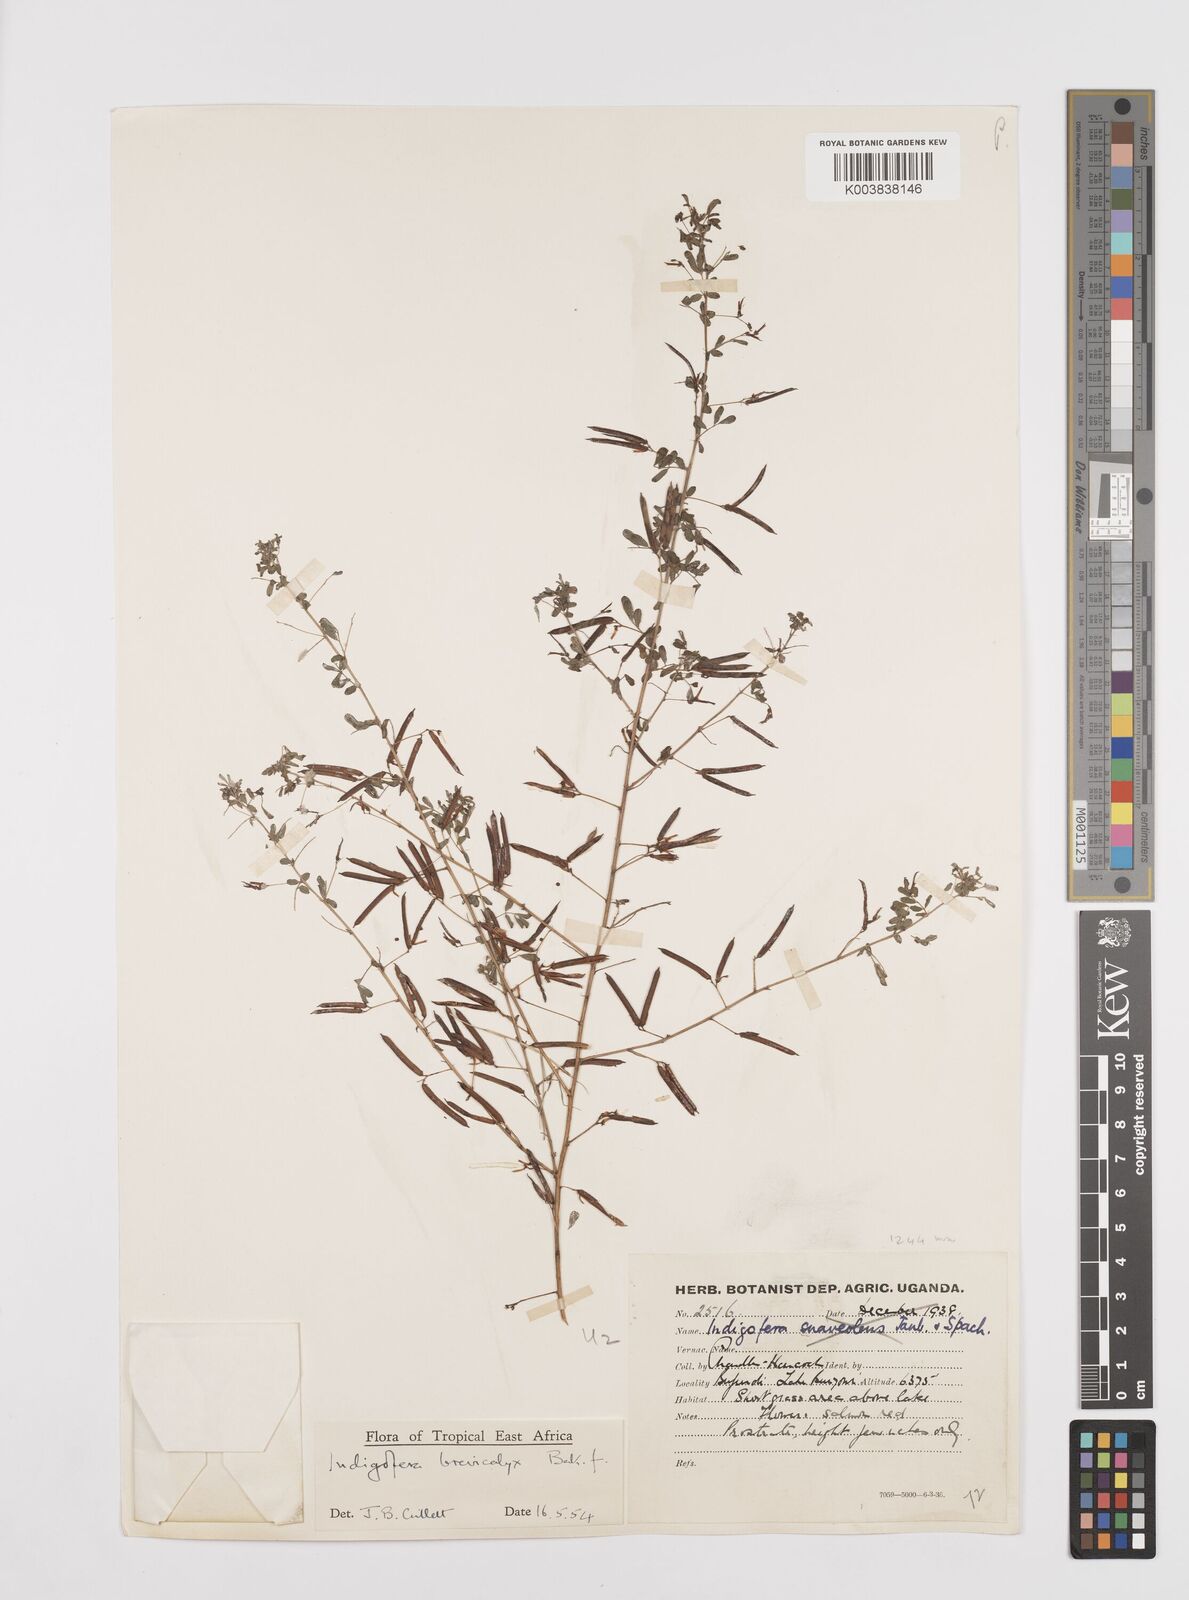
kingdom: Plantae
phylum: Tracheophyta
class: Magnoliopsida
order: Fabales
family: Fabaceae
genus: Indigofera
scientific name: Indigofera brevicalyx
